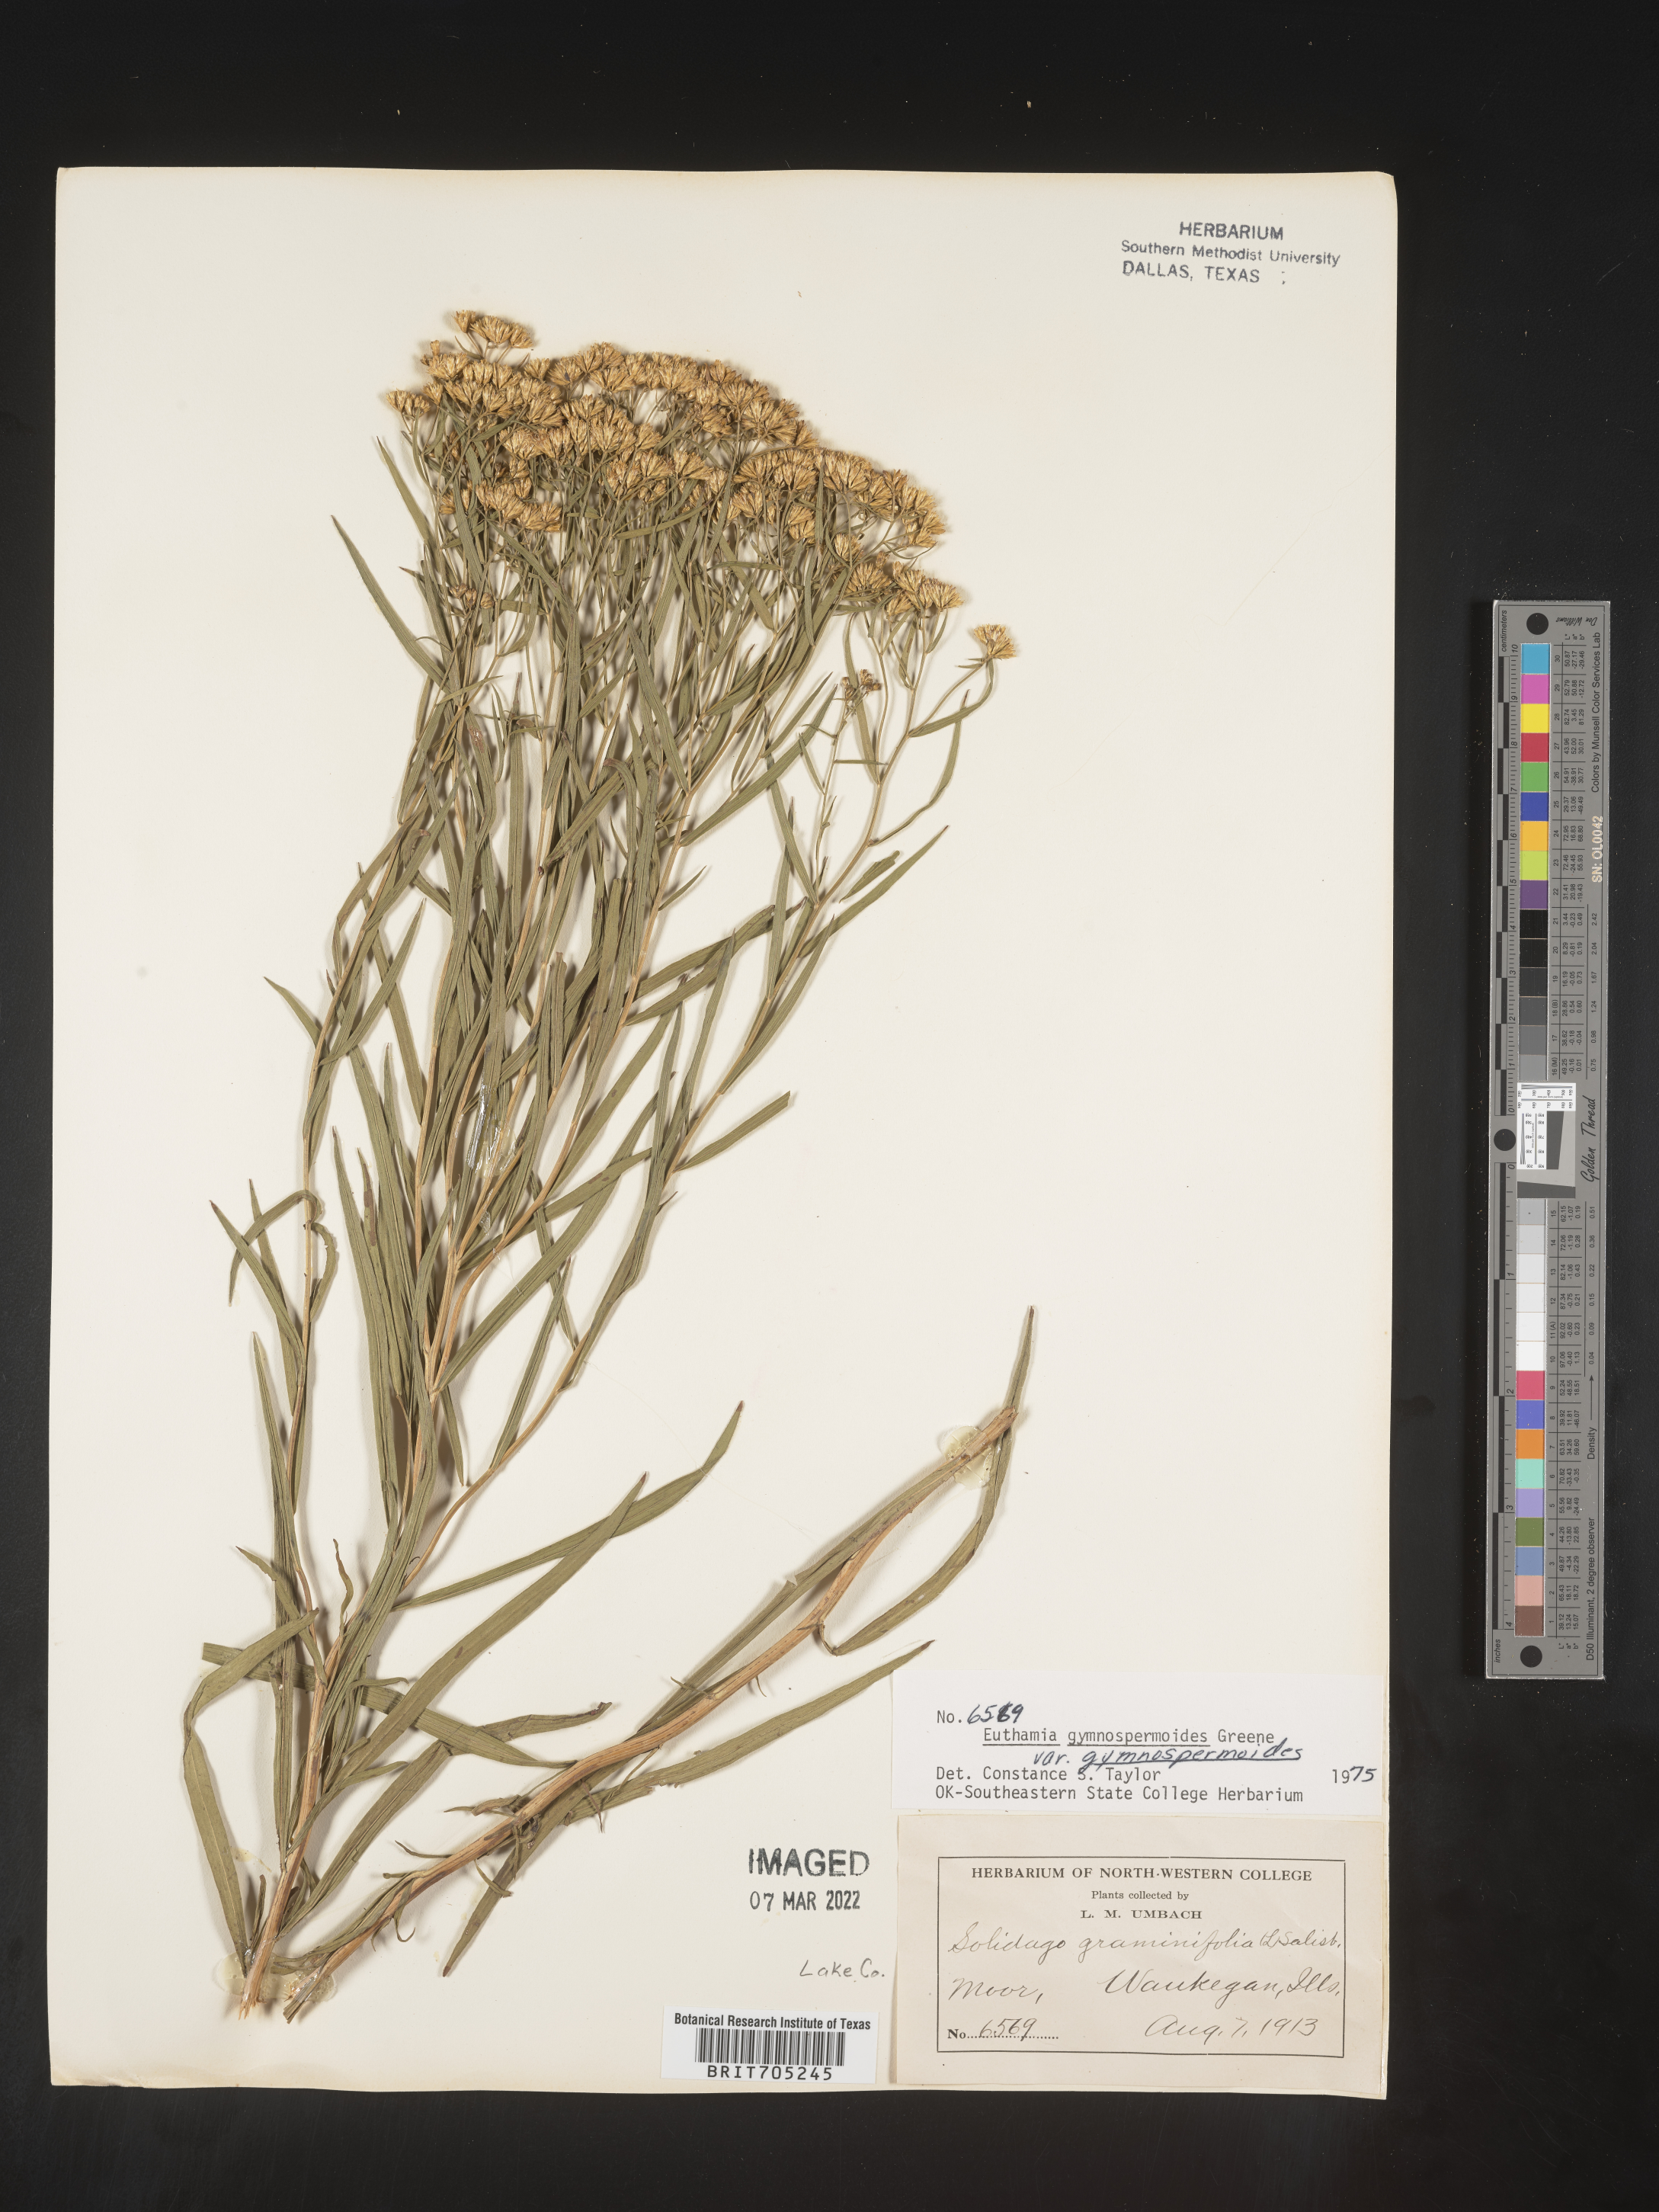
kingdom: Plantae
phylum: Tracheophyta
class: Magnoliopsida
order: Asterales
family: Asteraceae
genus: Euthamia
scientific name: Euthamia gymnospermoides
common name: Great plains goldentop
